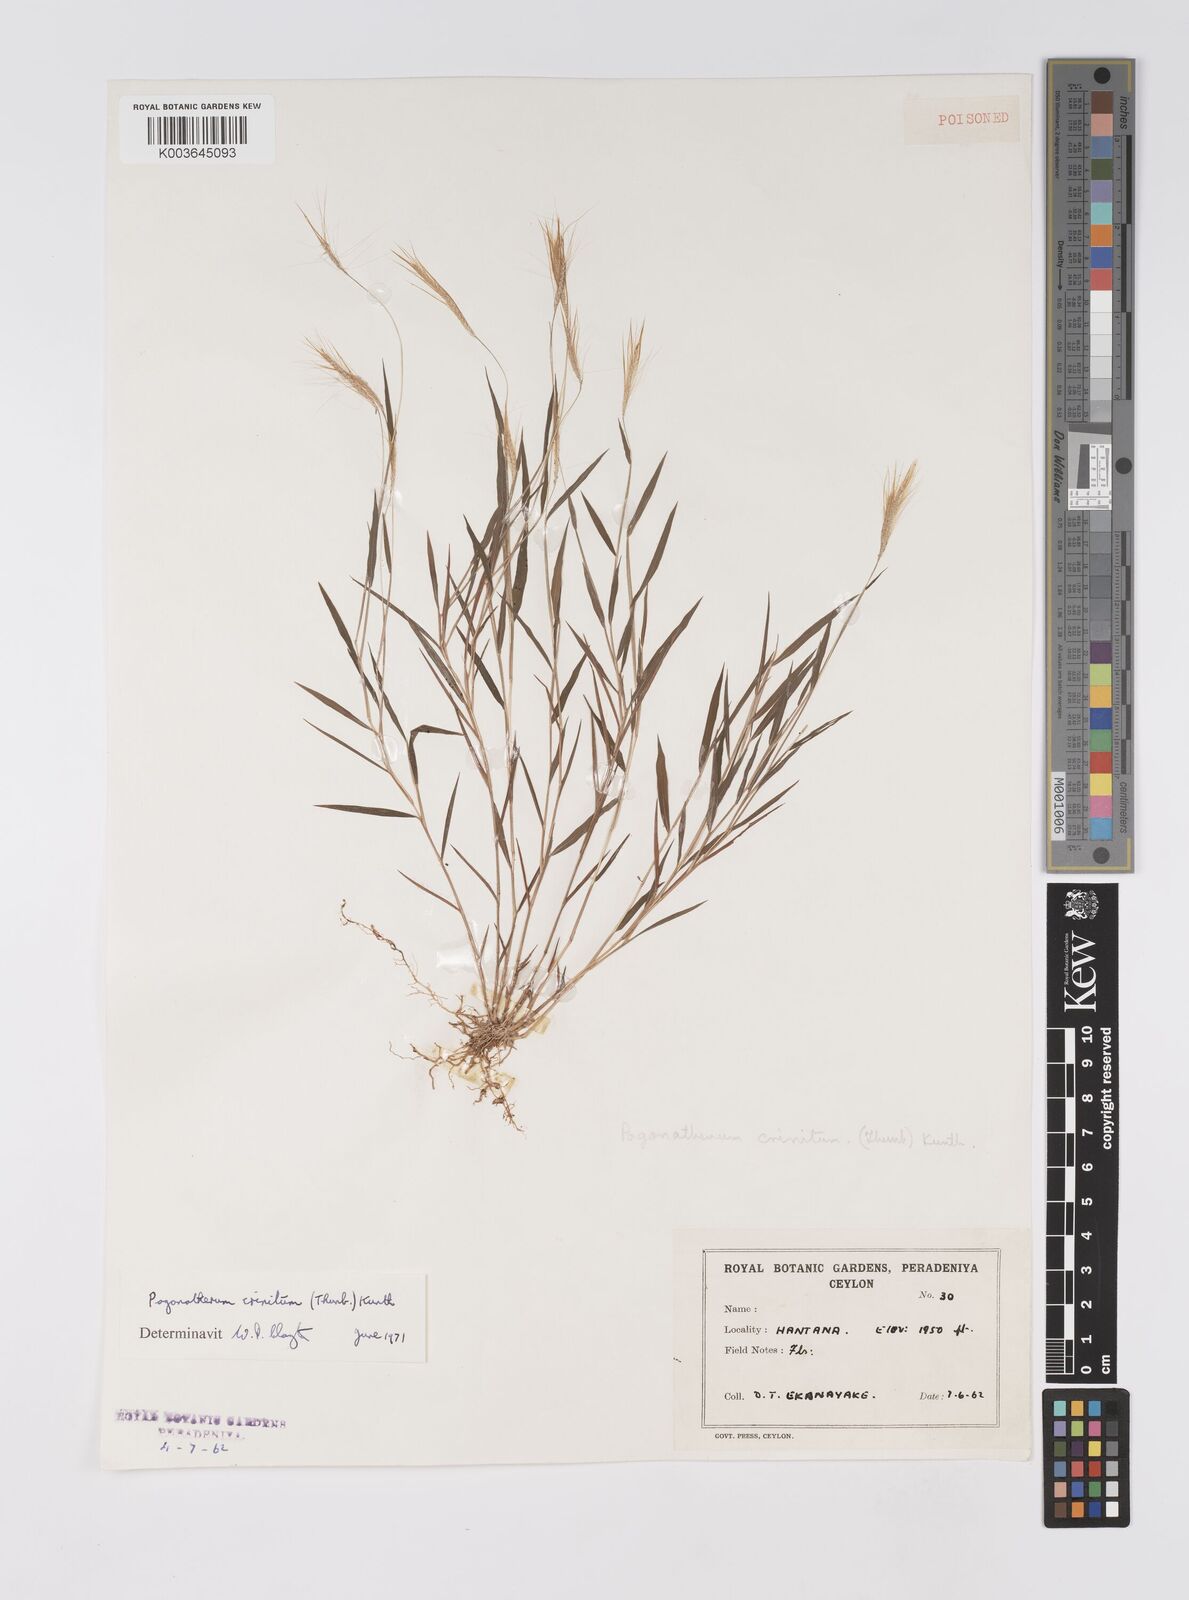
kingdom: Plantae
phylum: Tracheophyta
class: Liliopsida
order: Poales
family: Poaceae
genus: Pogonatherum
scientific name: Pogonatherum crinitum
